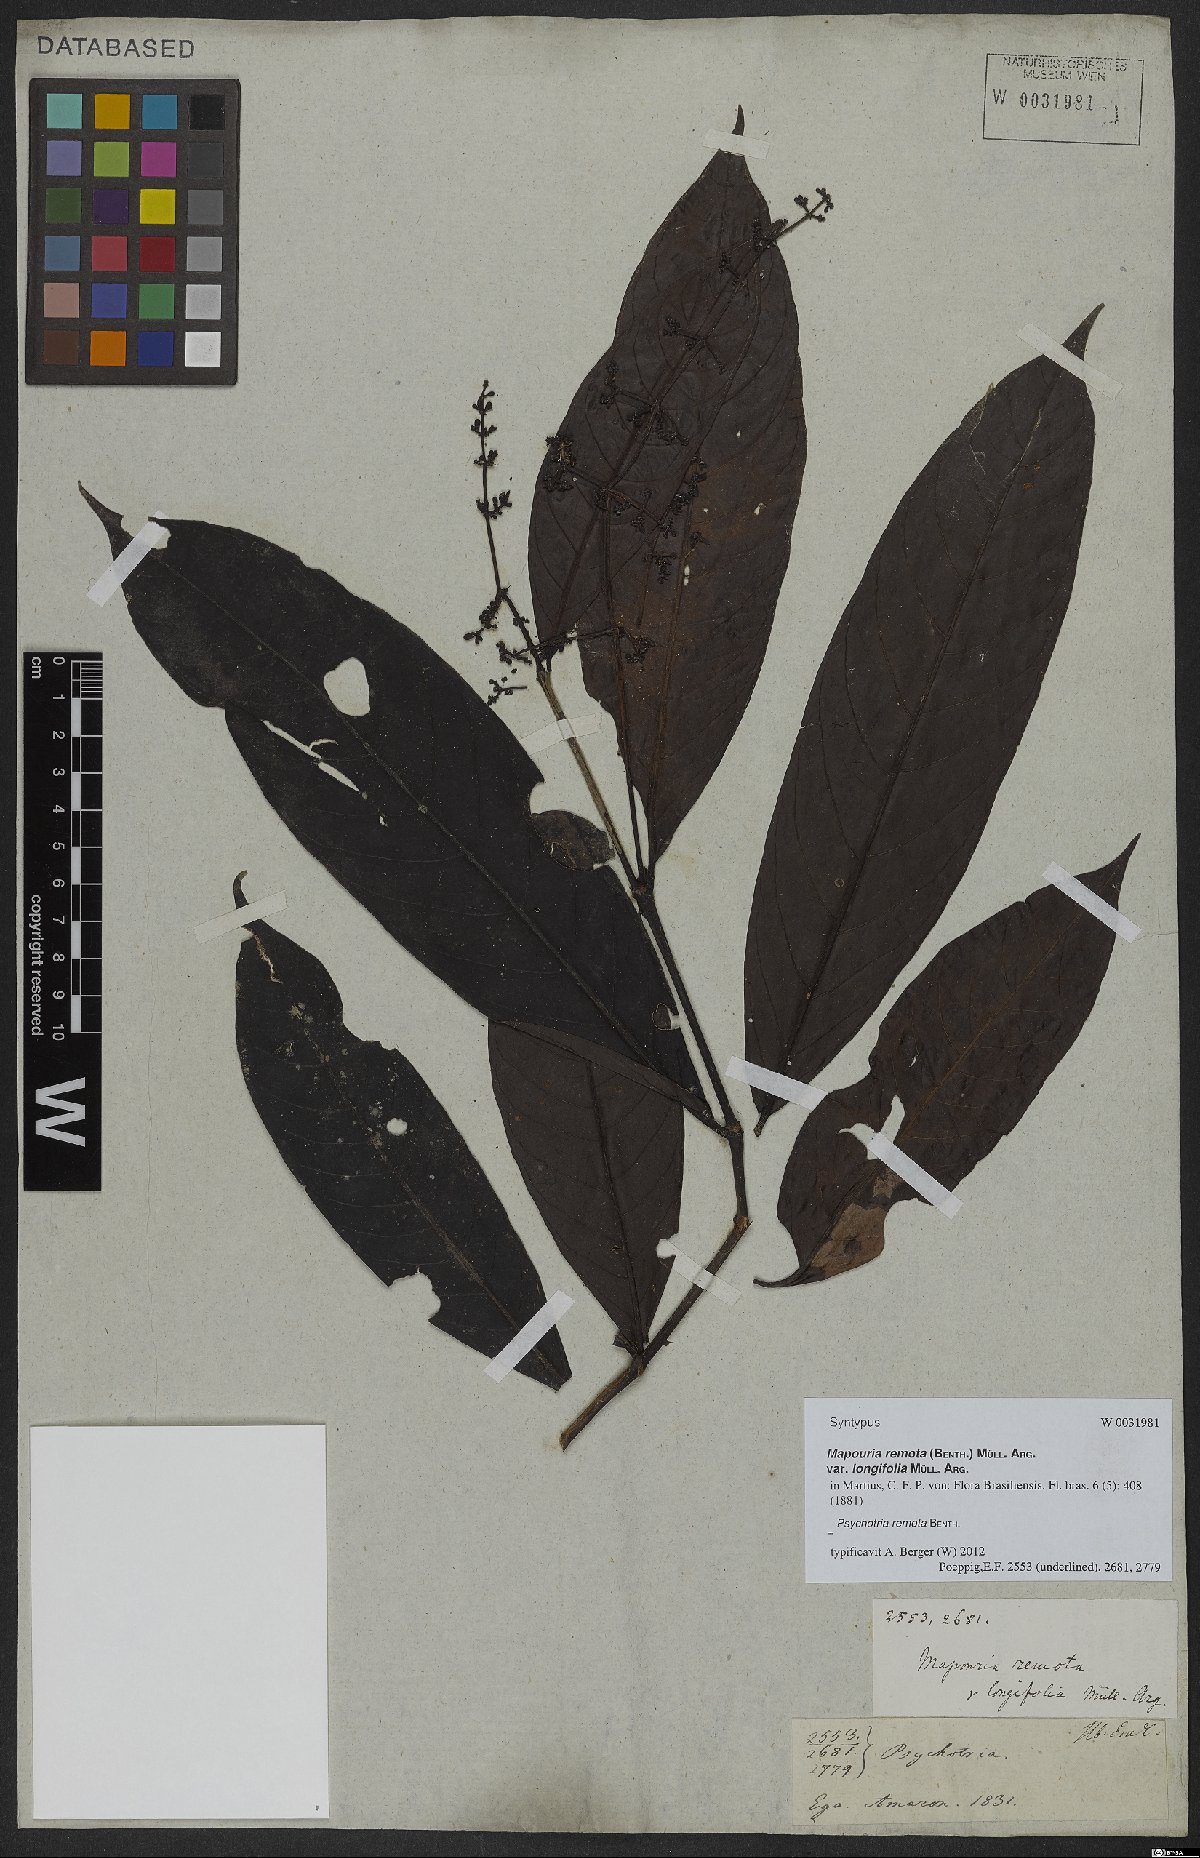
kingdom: Plantae
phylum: Tracheophyta
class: Magnoliopsida
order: Gentianales
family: Rubiaceae
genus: Psychotria
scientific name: Psychotria remota
